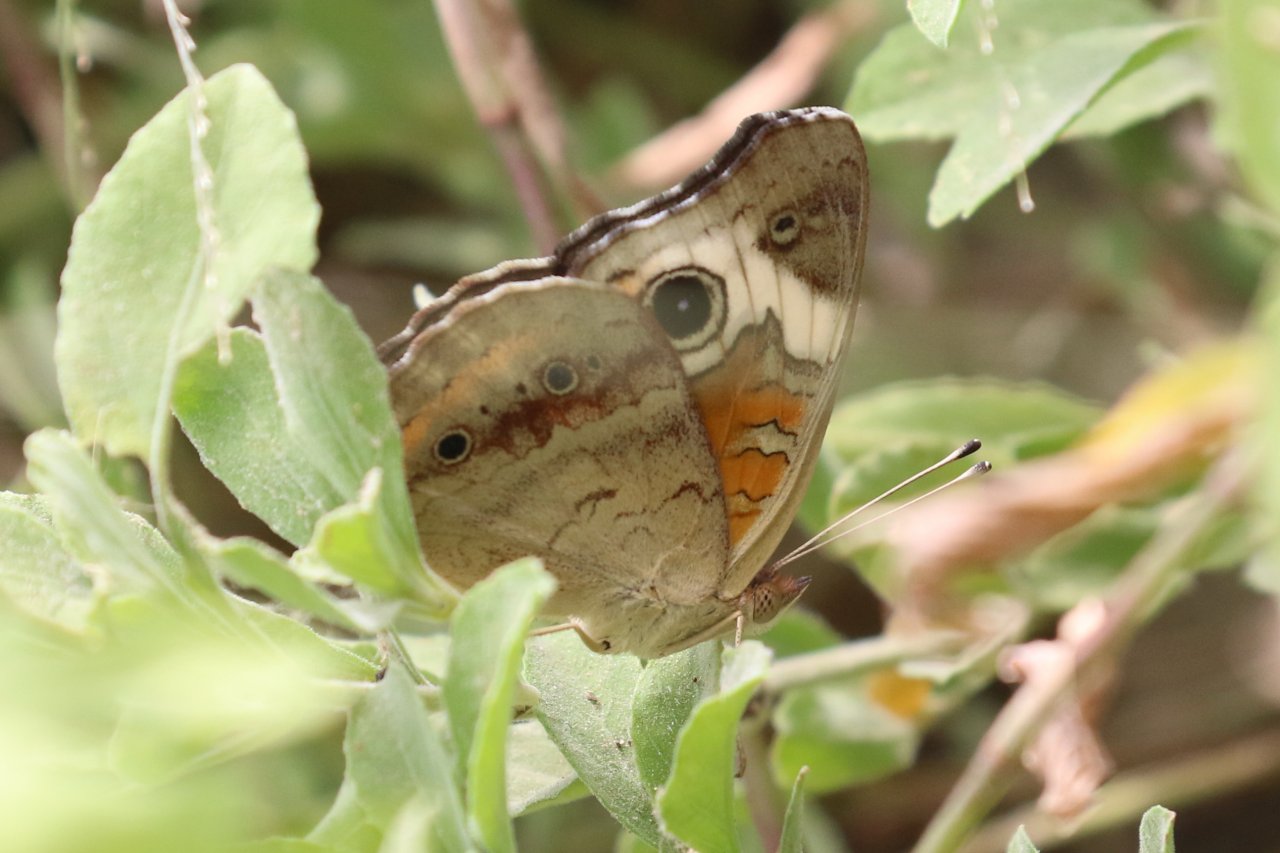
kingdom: Animalia
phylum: Arthropoda
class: Insecta
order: Lepidoptera
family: Nymphalidae
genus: Junonia
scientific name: Junonia coenia
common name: Common Buckeye
